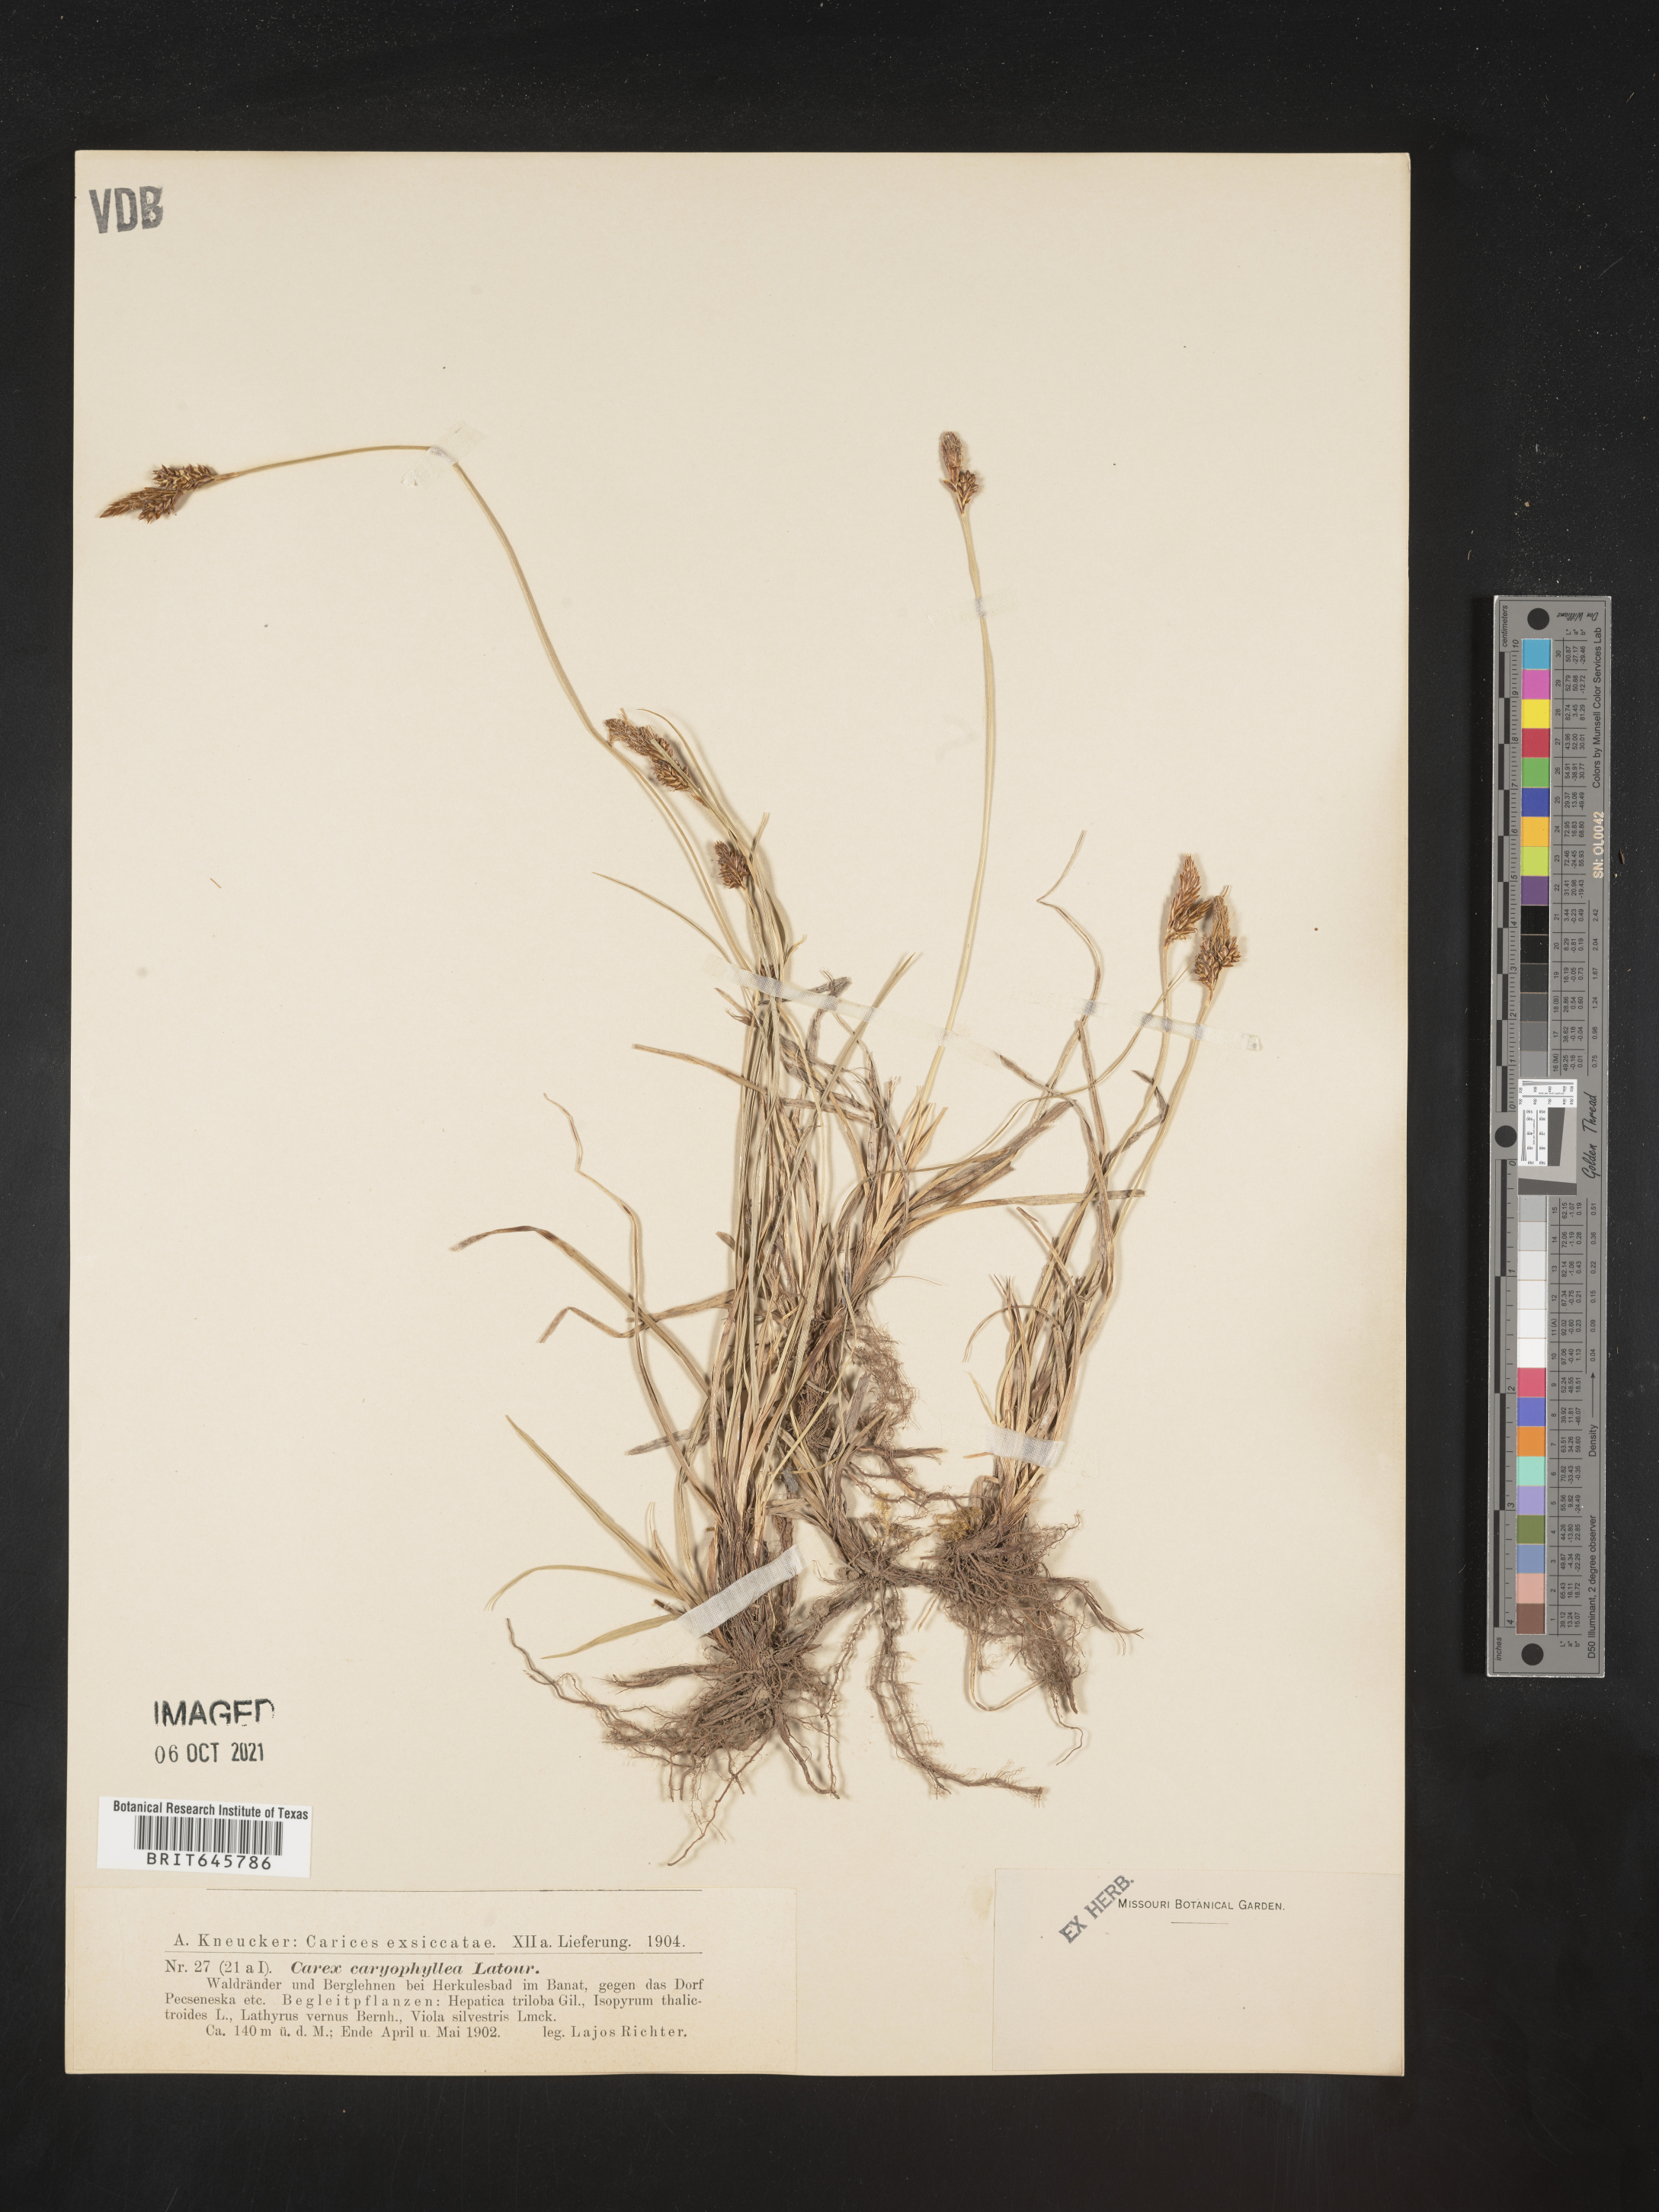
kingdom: Plantae
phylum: Tracheophyta
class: Liliopsida
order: Poales
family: Cyperaceae
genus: Carex
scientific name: Carex caryophyllea
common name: Spring sedge
